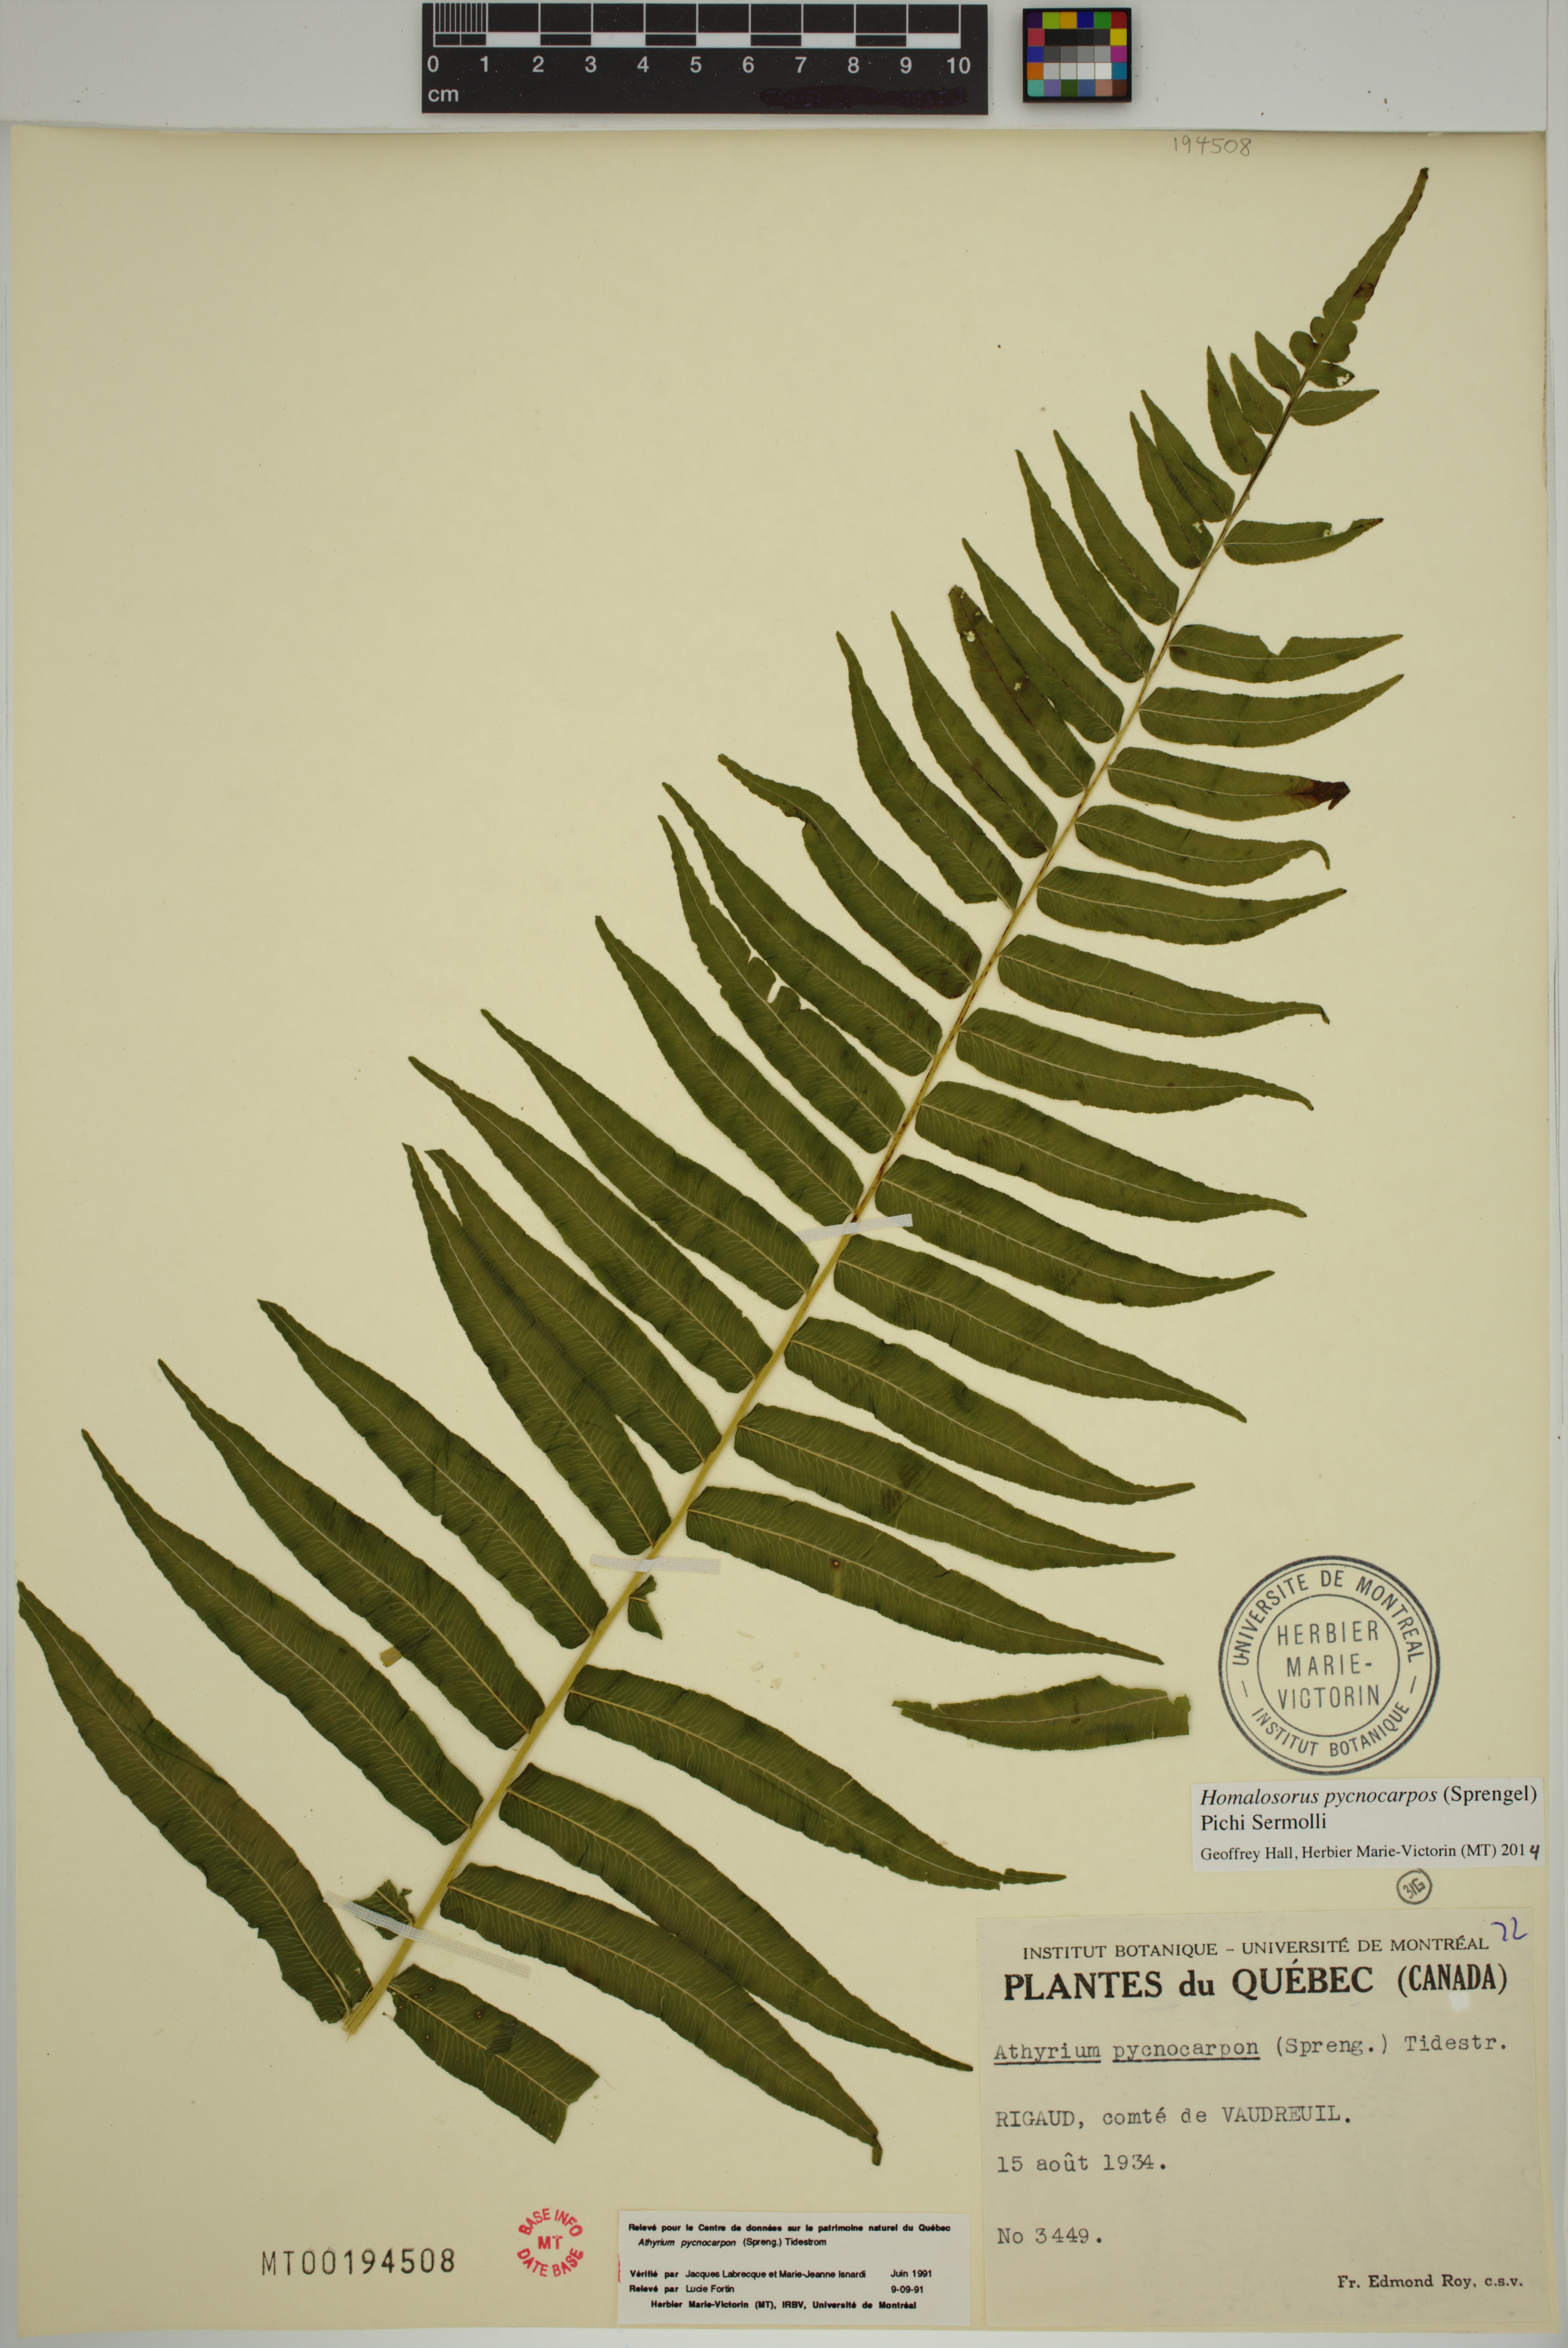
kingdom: Plantae
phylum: Tracheophyta
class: Polypodiopsida
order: Polypodiales
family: Diplaziopsidaceae
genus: Homalosorus
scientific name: Homalosorus pycnocarpos
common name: Glade fern
